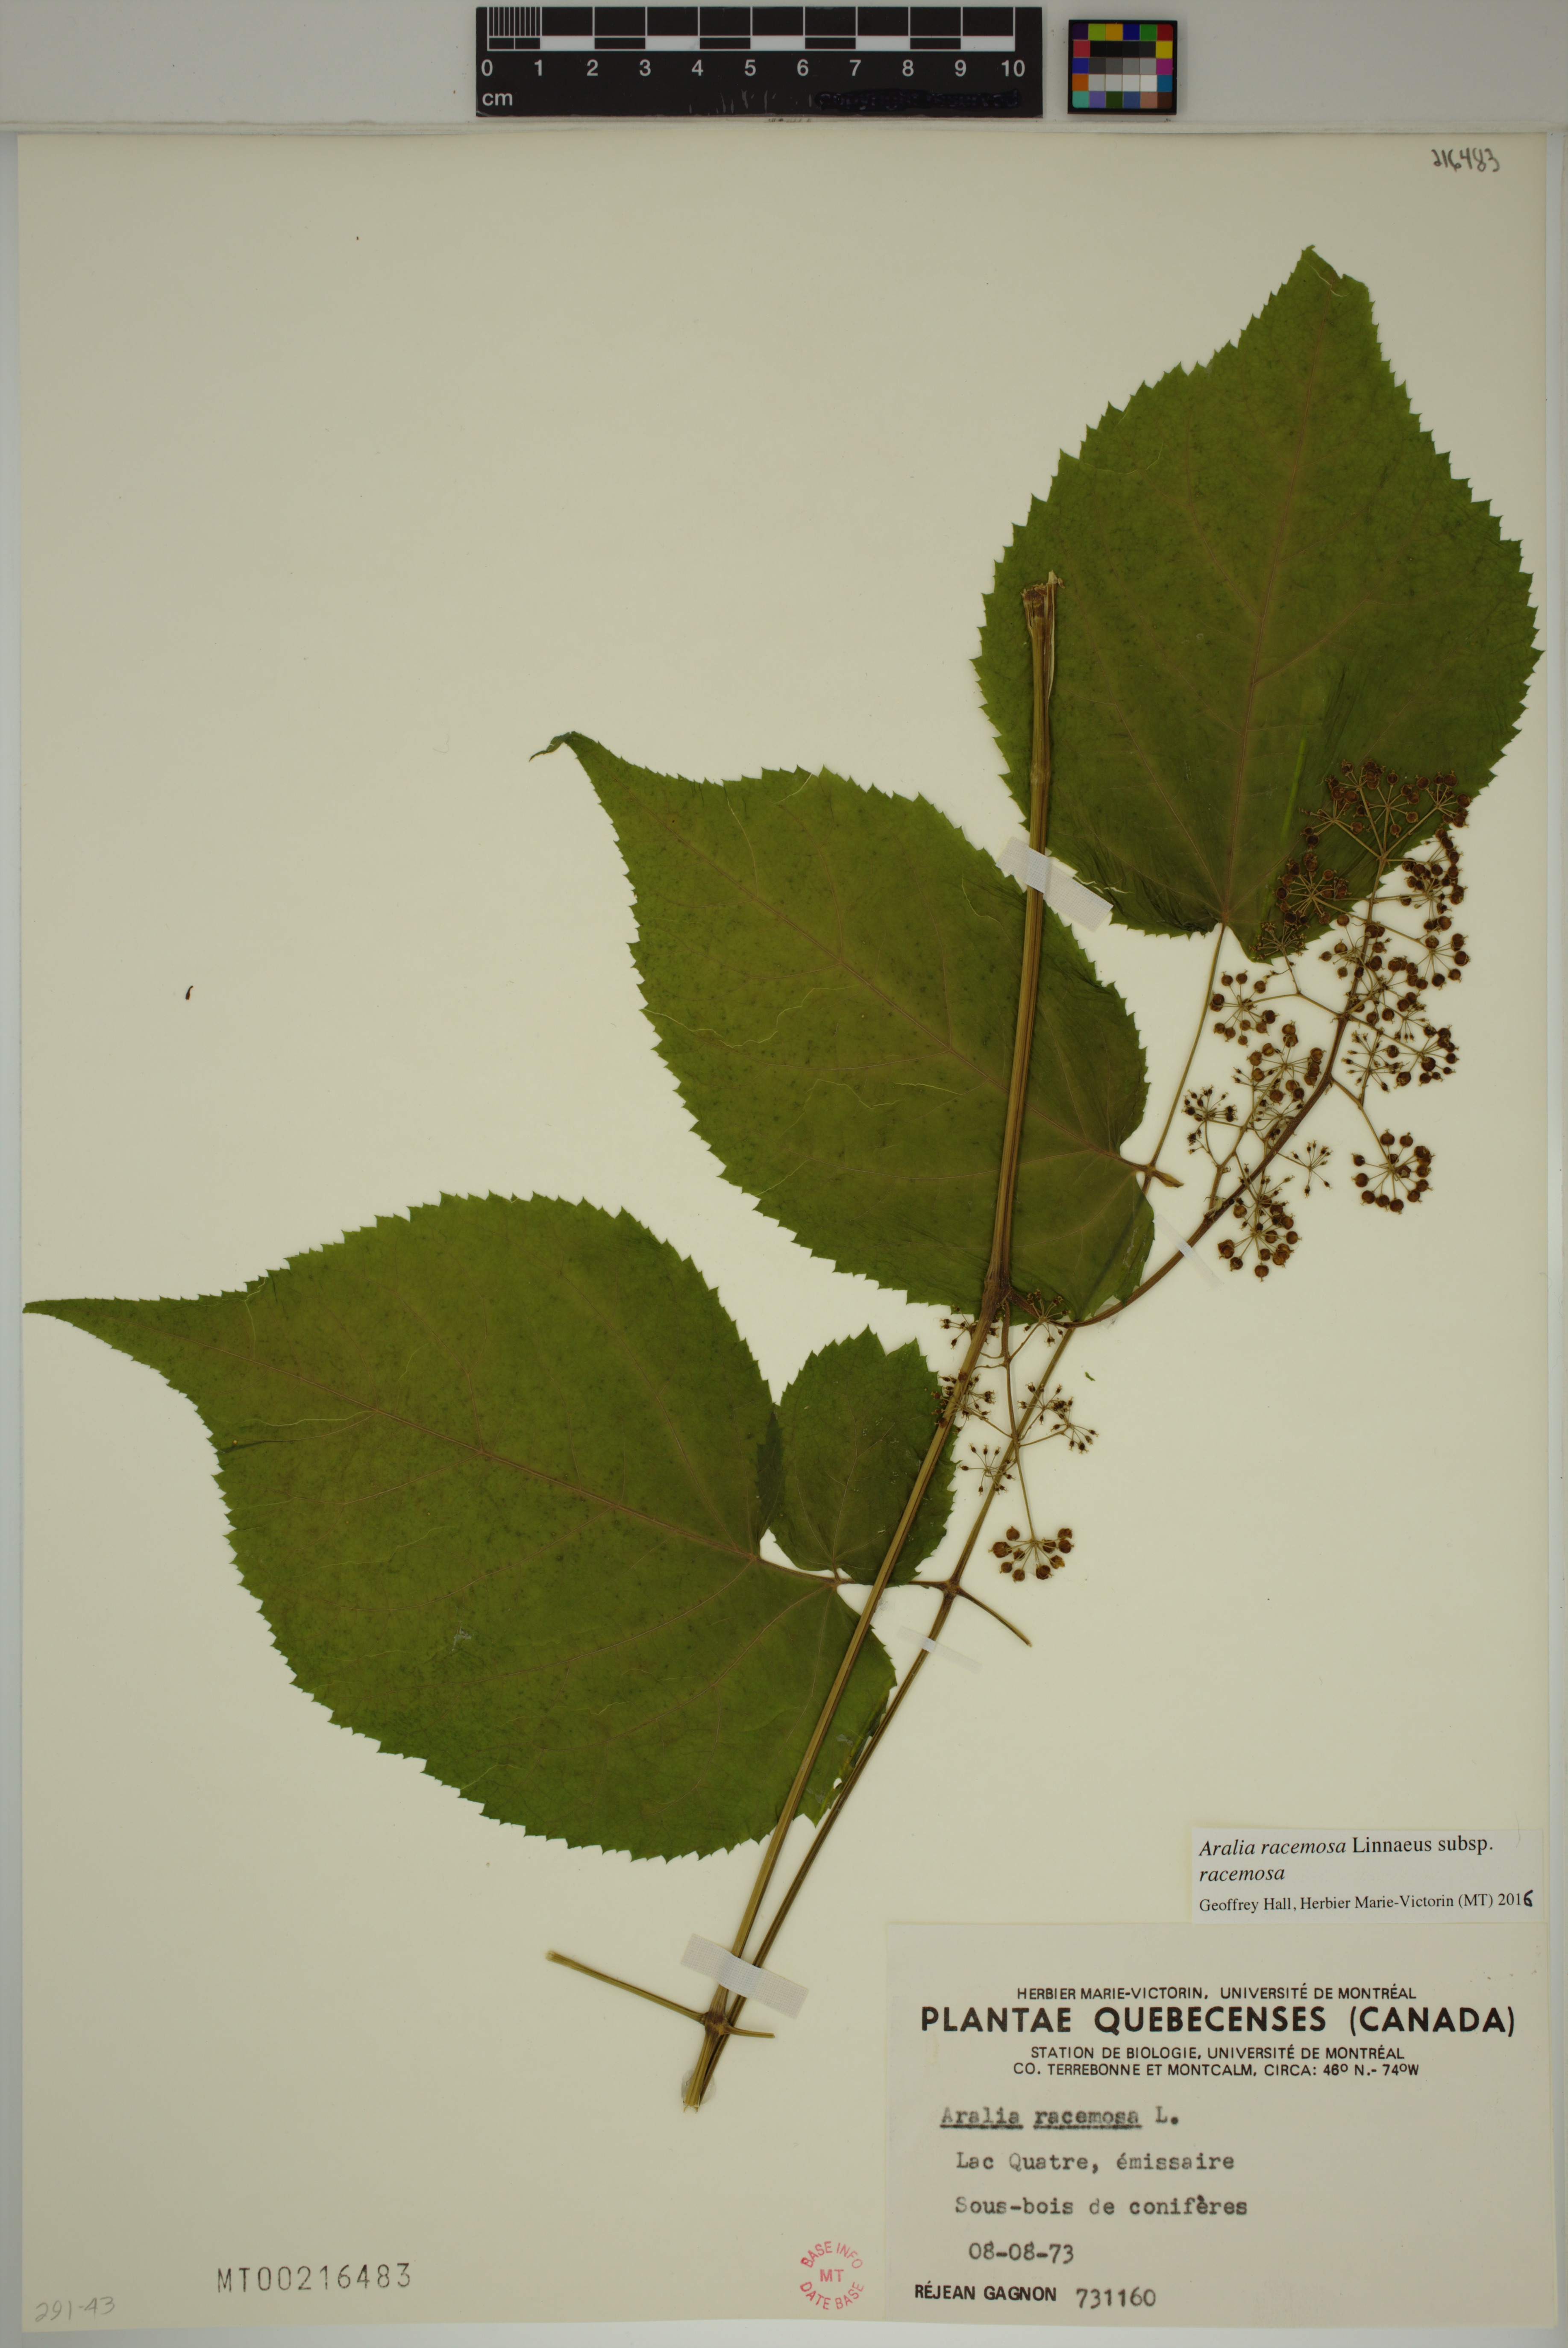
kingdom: Plantae
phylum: Tracheophyta
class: Magnoliopsida
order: Apiales
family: Araliaceae
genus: Aralia
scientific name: Aralia racemosa
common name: American-spikenard
